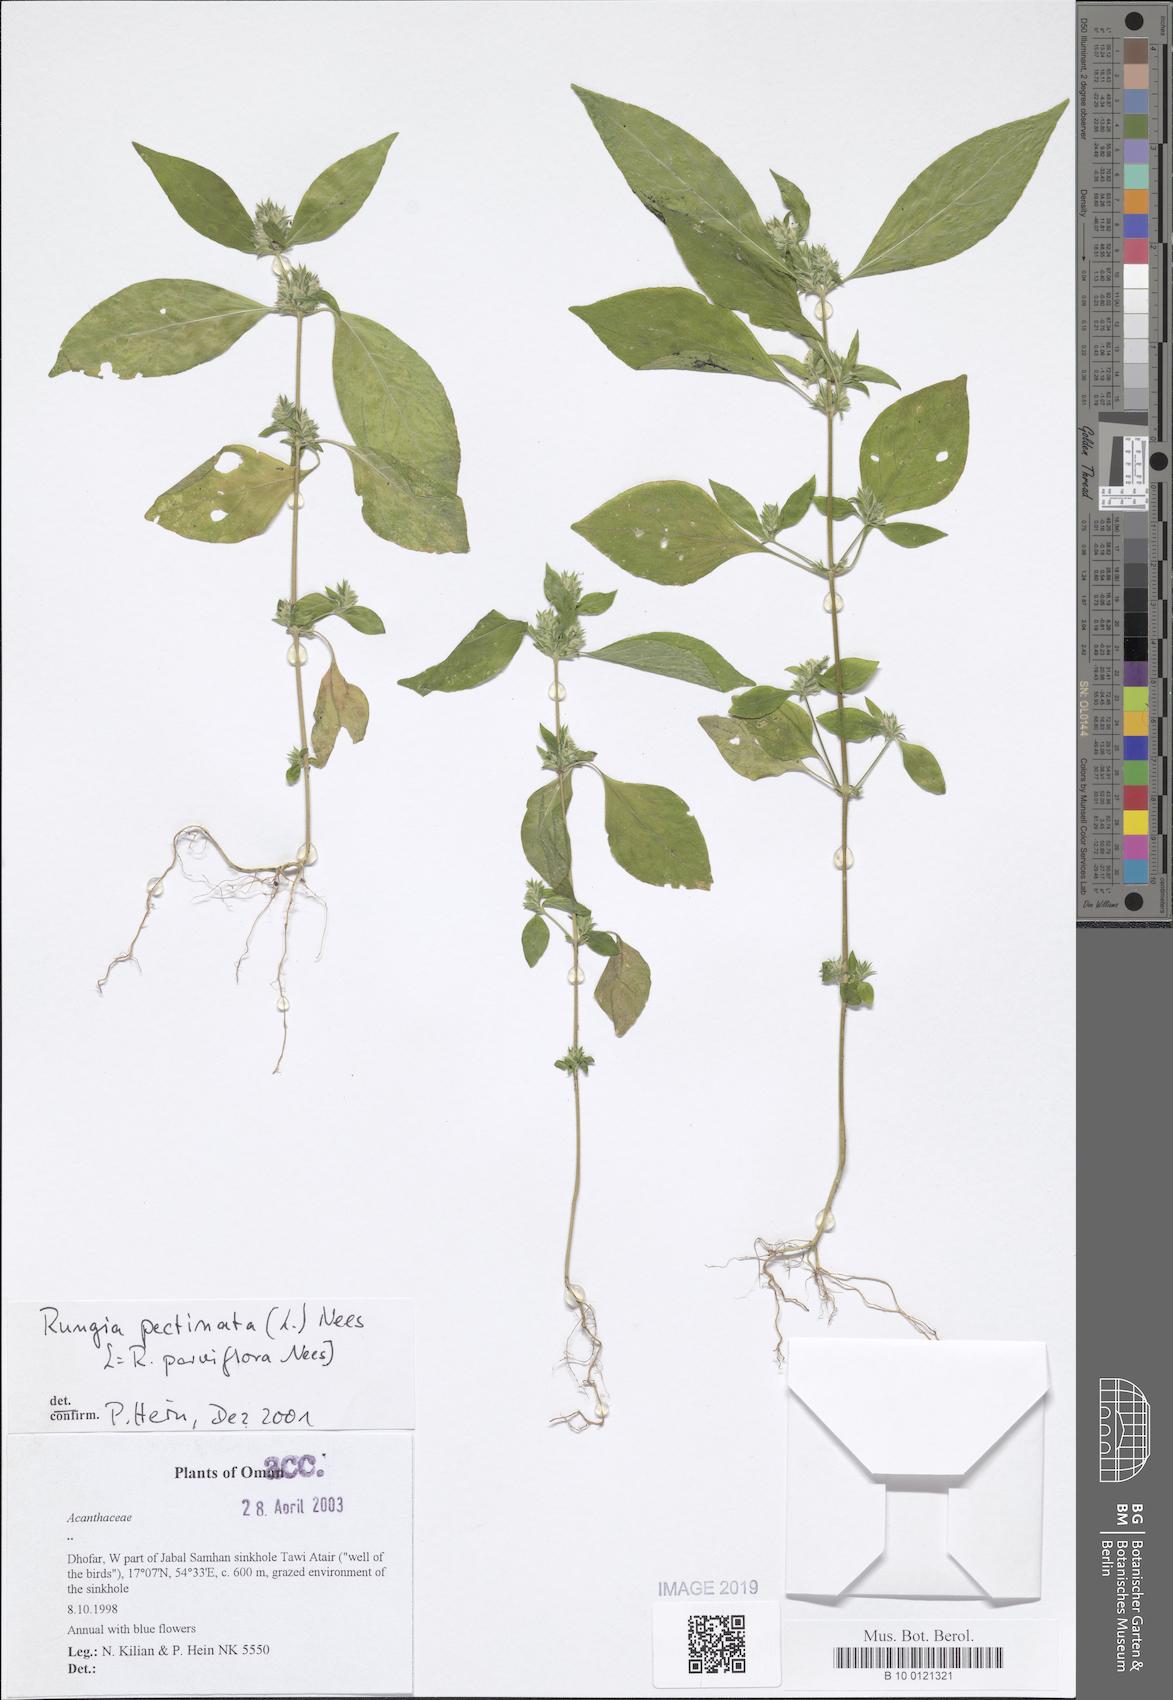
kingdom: Plantae
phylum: Tracheophyta
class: Magnoliopsida
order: Lamiales
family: Acanthaceae
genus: Rungia
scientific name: Rungia pectinata
